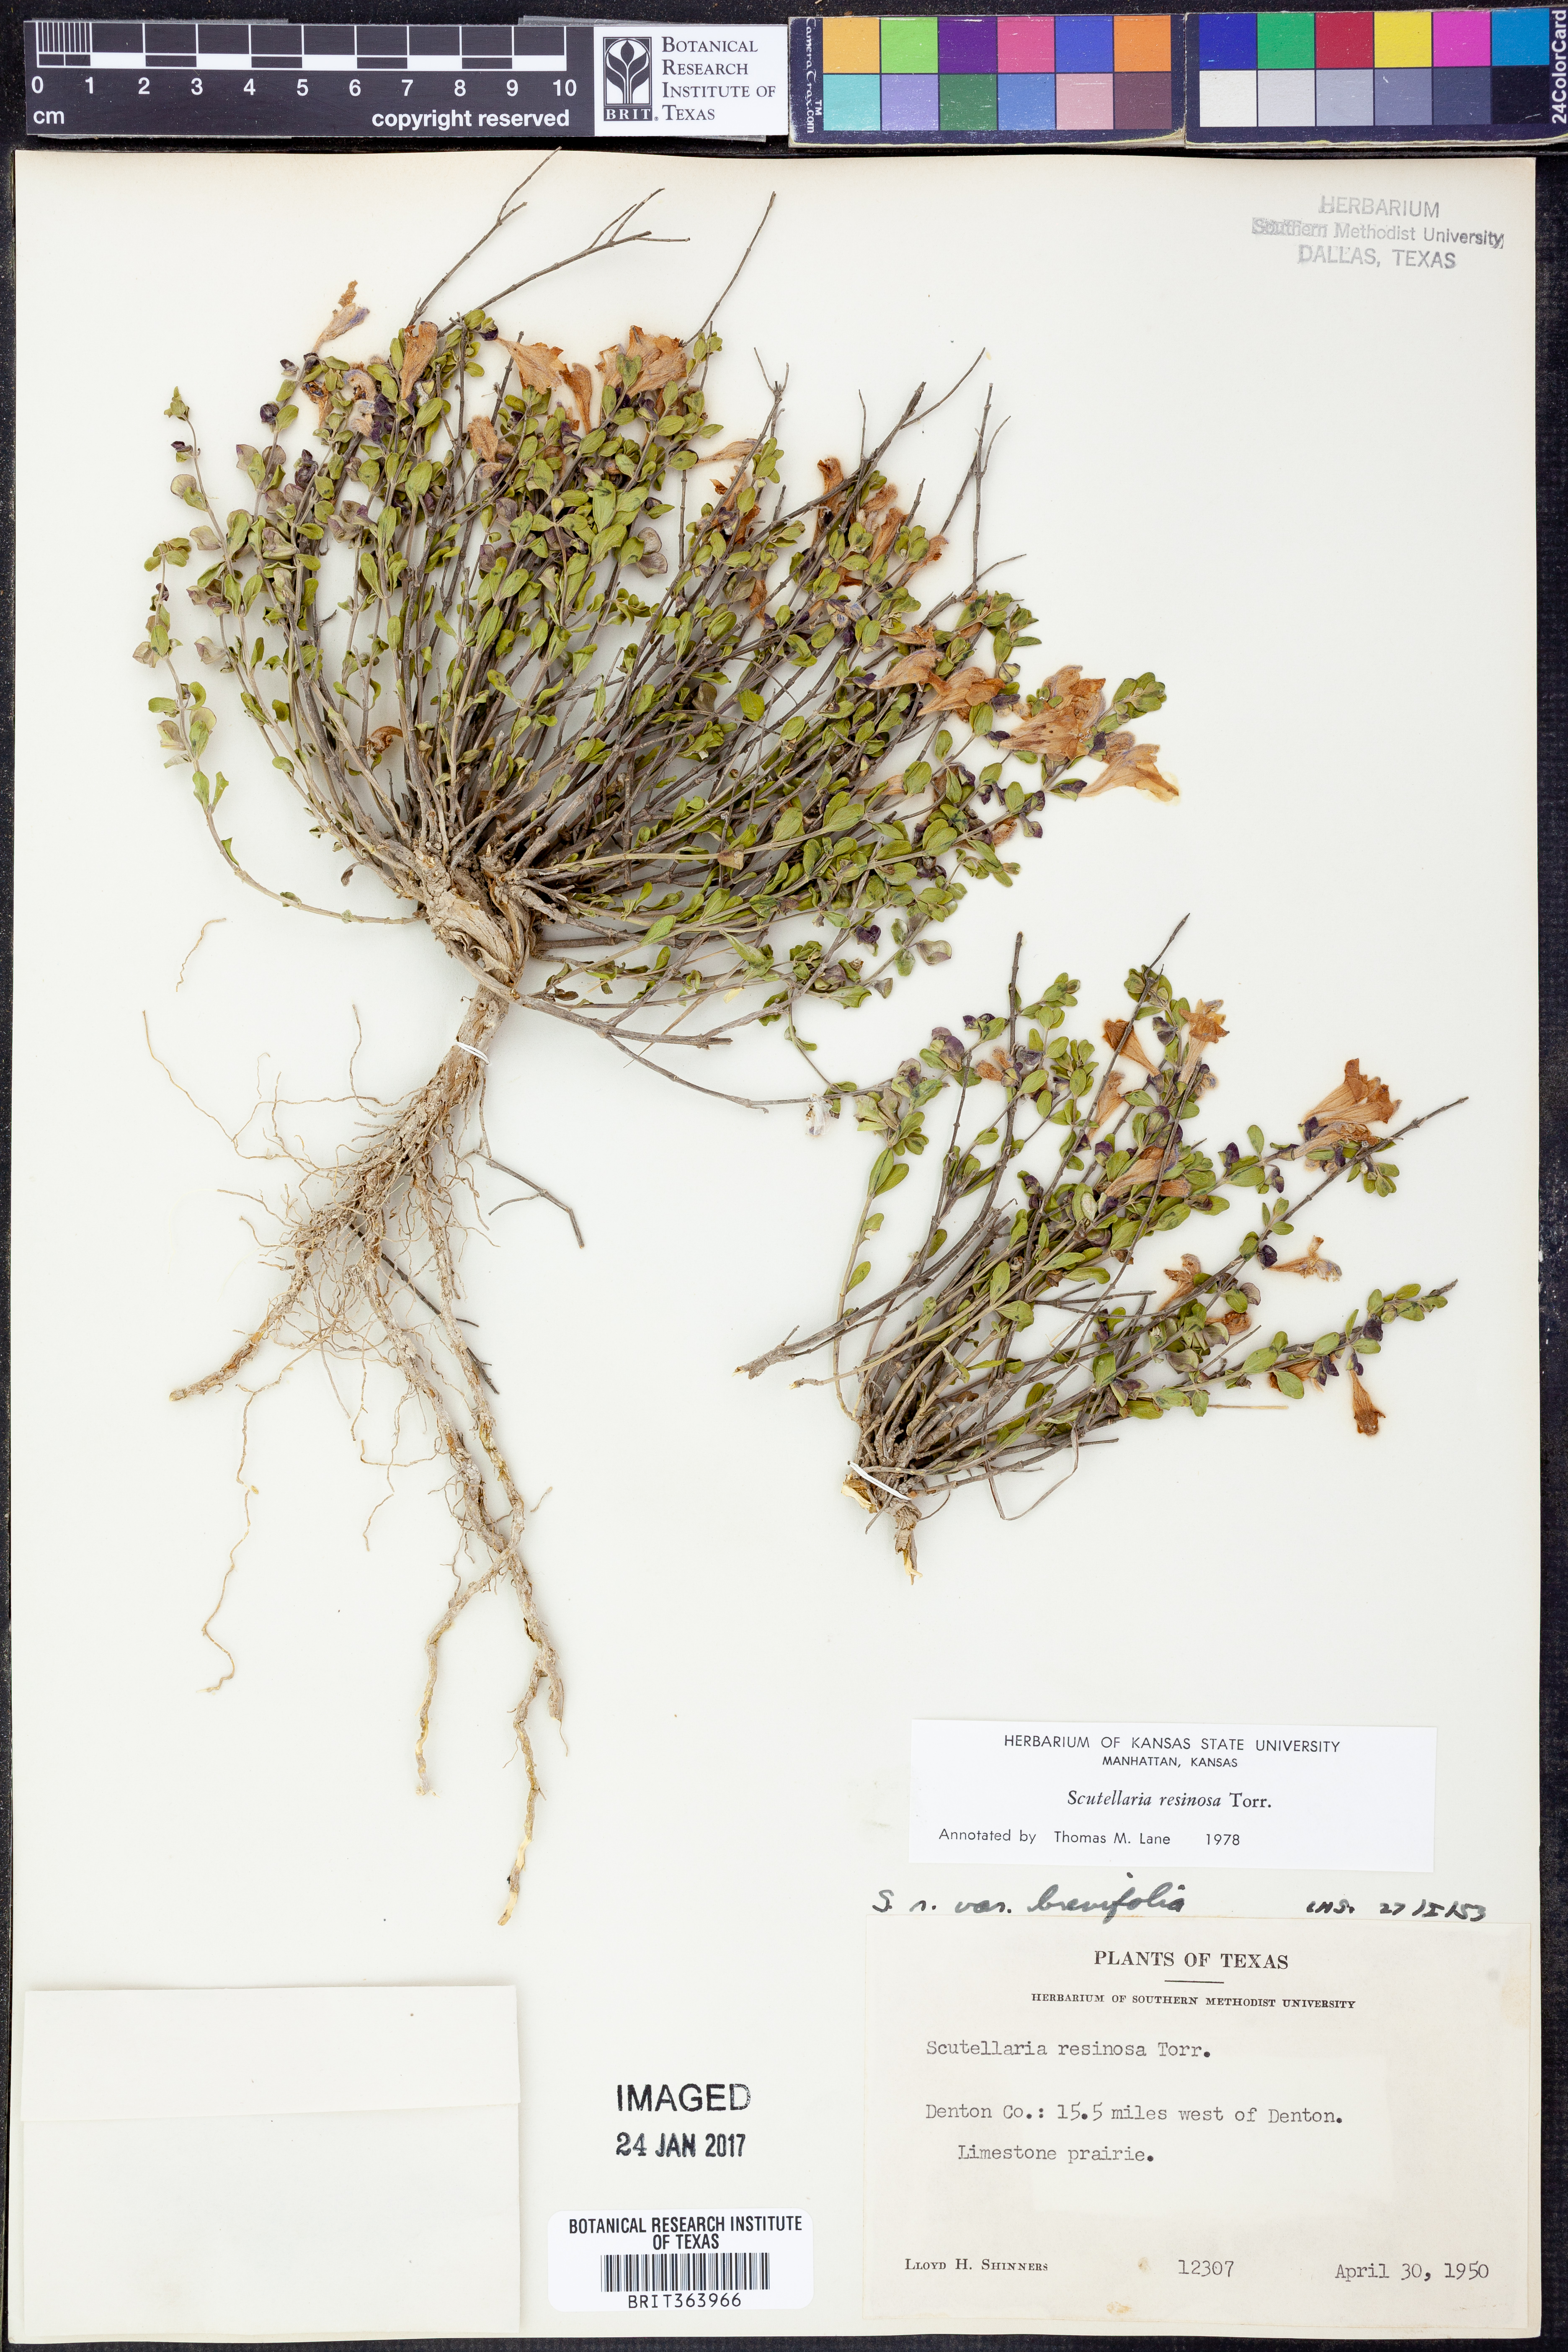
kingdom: Plantae
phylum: Tracheophyta
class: Magnoliopsida
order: Lamiales
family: Lamiaceae
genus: Scutellaria
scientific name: Scutellaria resinosa
